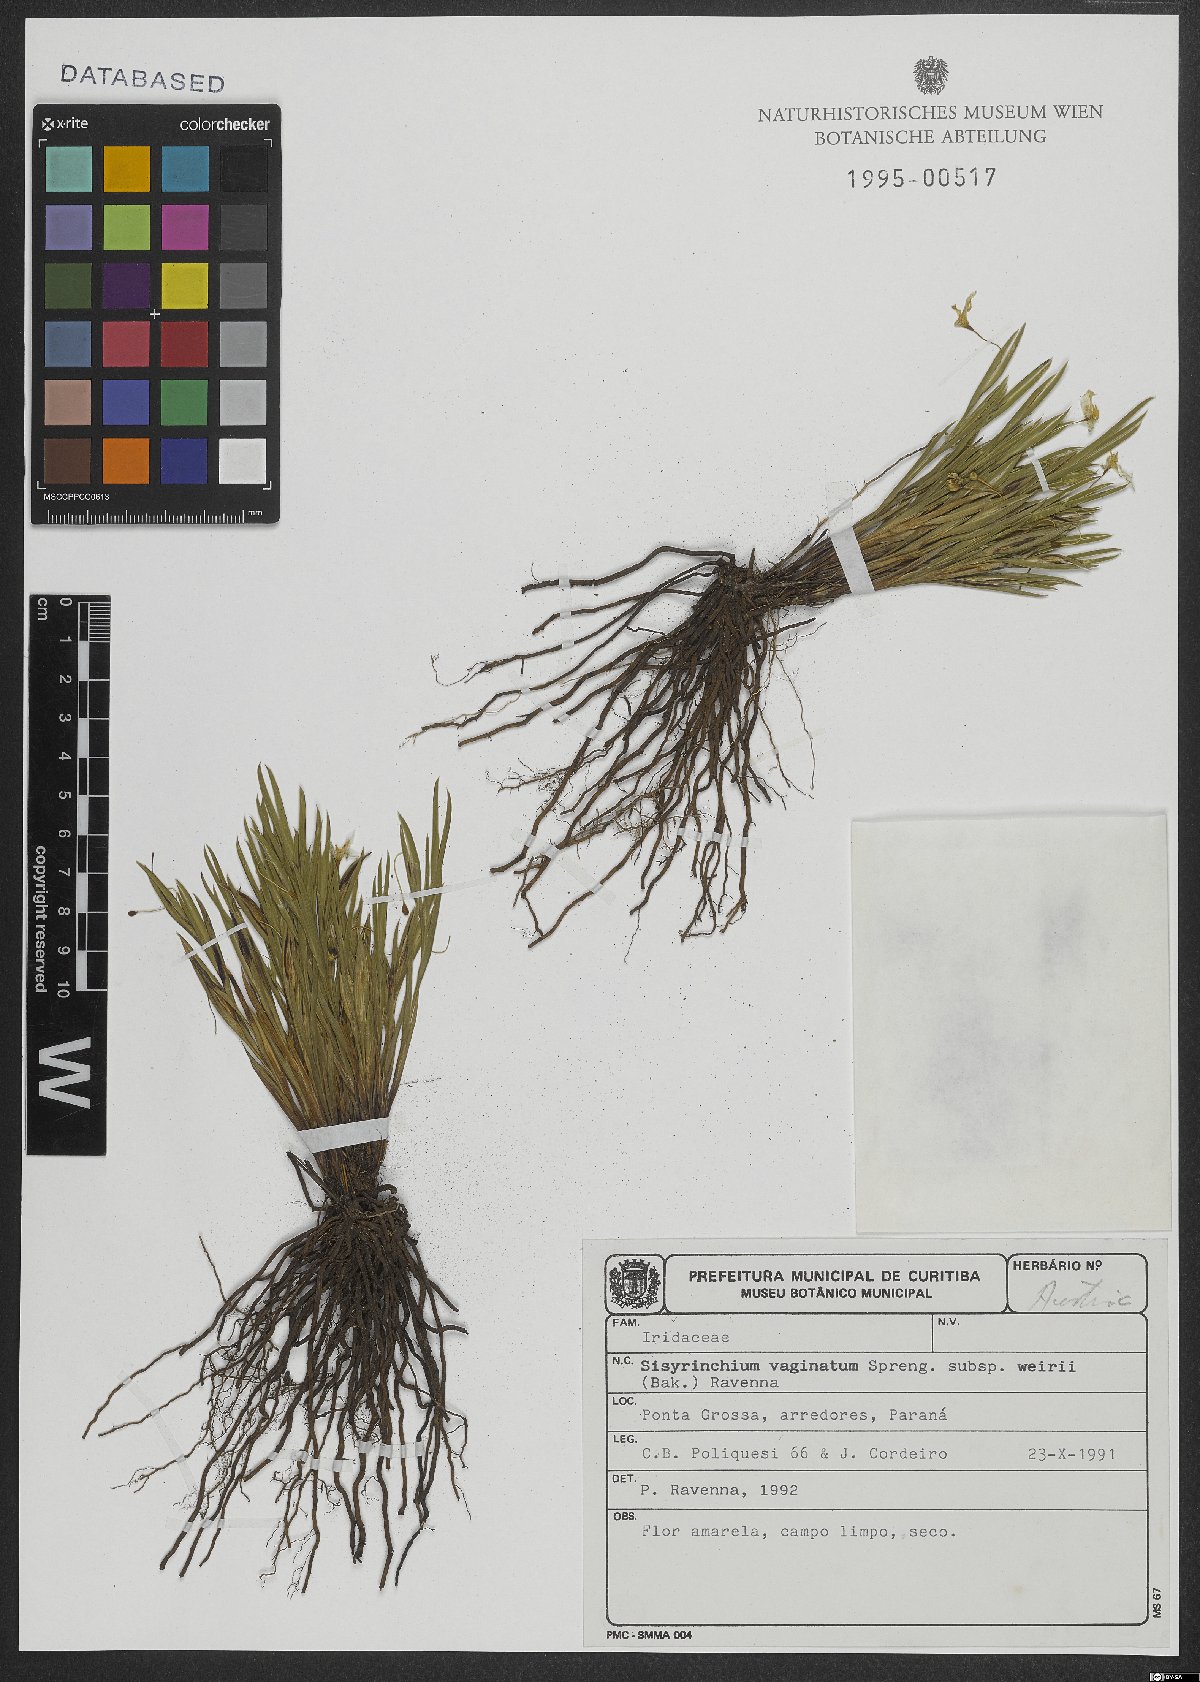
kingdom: Plantae
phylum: Tracheophyta
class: Liliopsida
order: Asparagales
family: Iridaceae
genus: Sisyrinchium
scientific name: Sisyrinchium vaginatum
